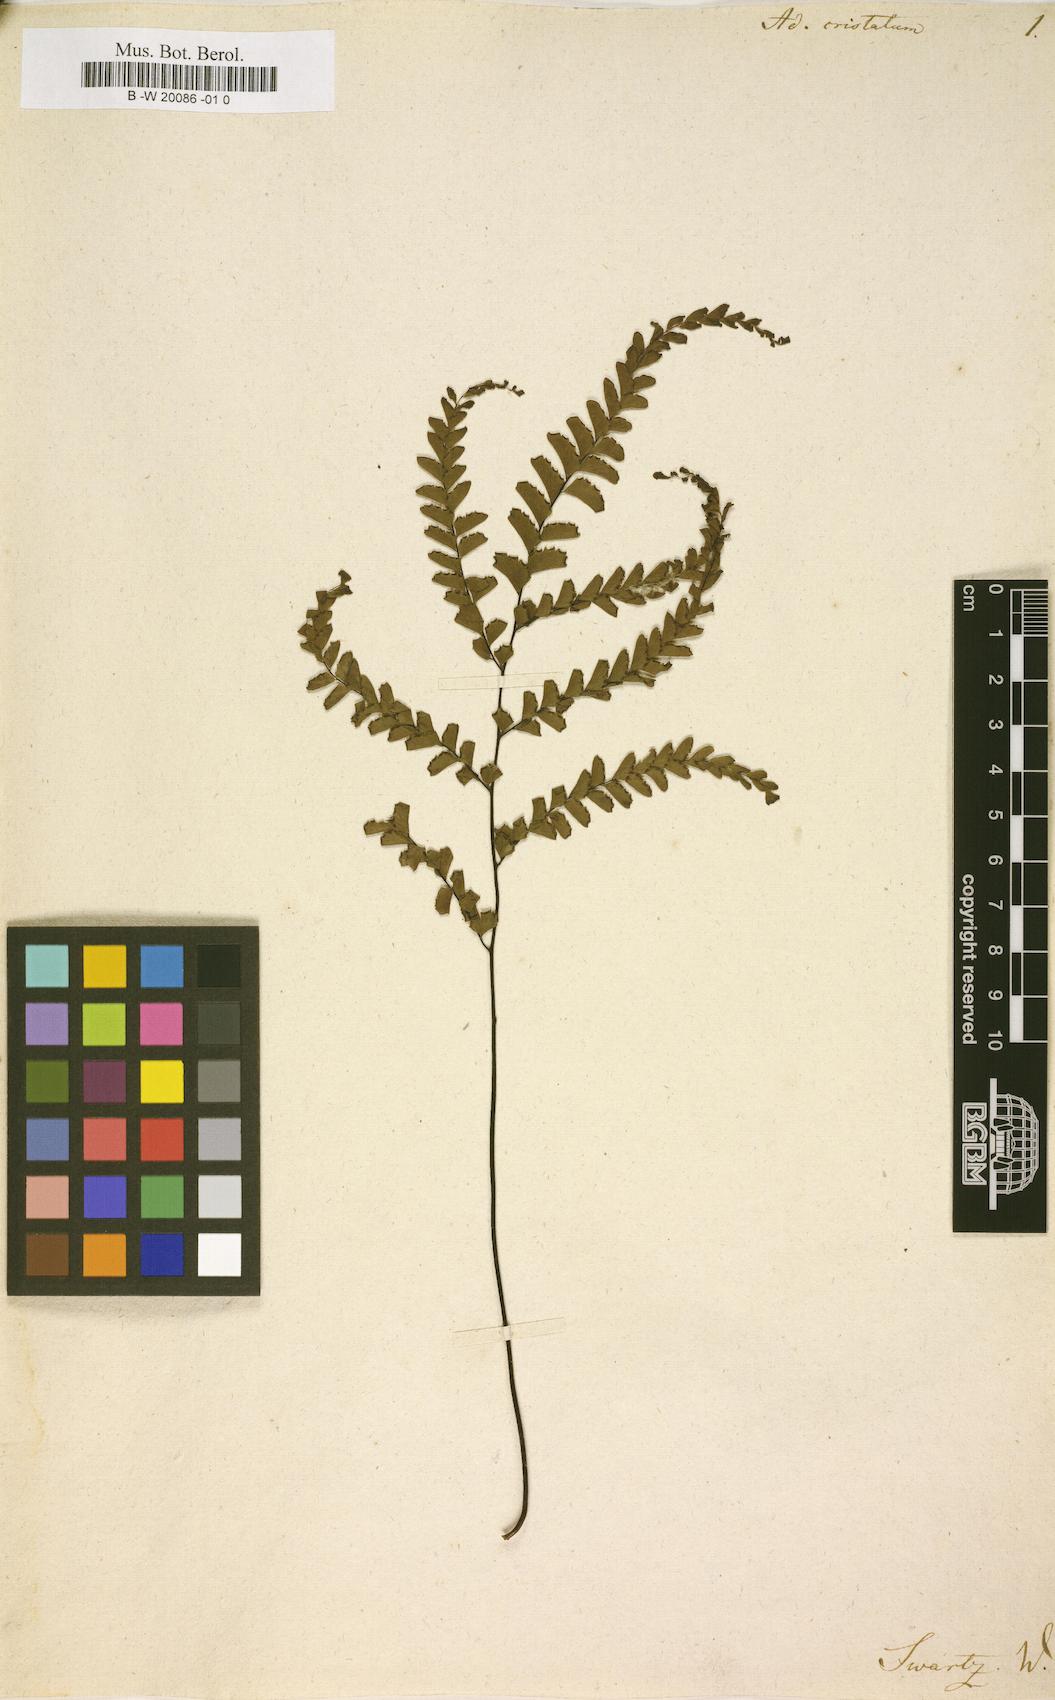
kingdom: Plantae
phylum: Tracheophyta
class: Polypodiopsida
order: Polypodiales
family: Pteridaceae
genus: Adiantum
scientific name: Adiantum pyramidale
